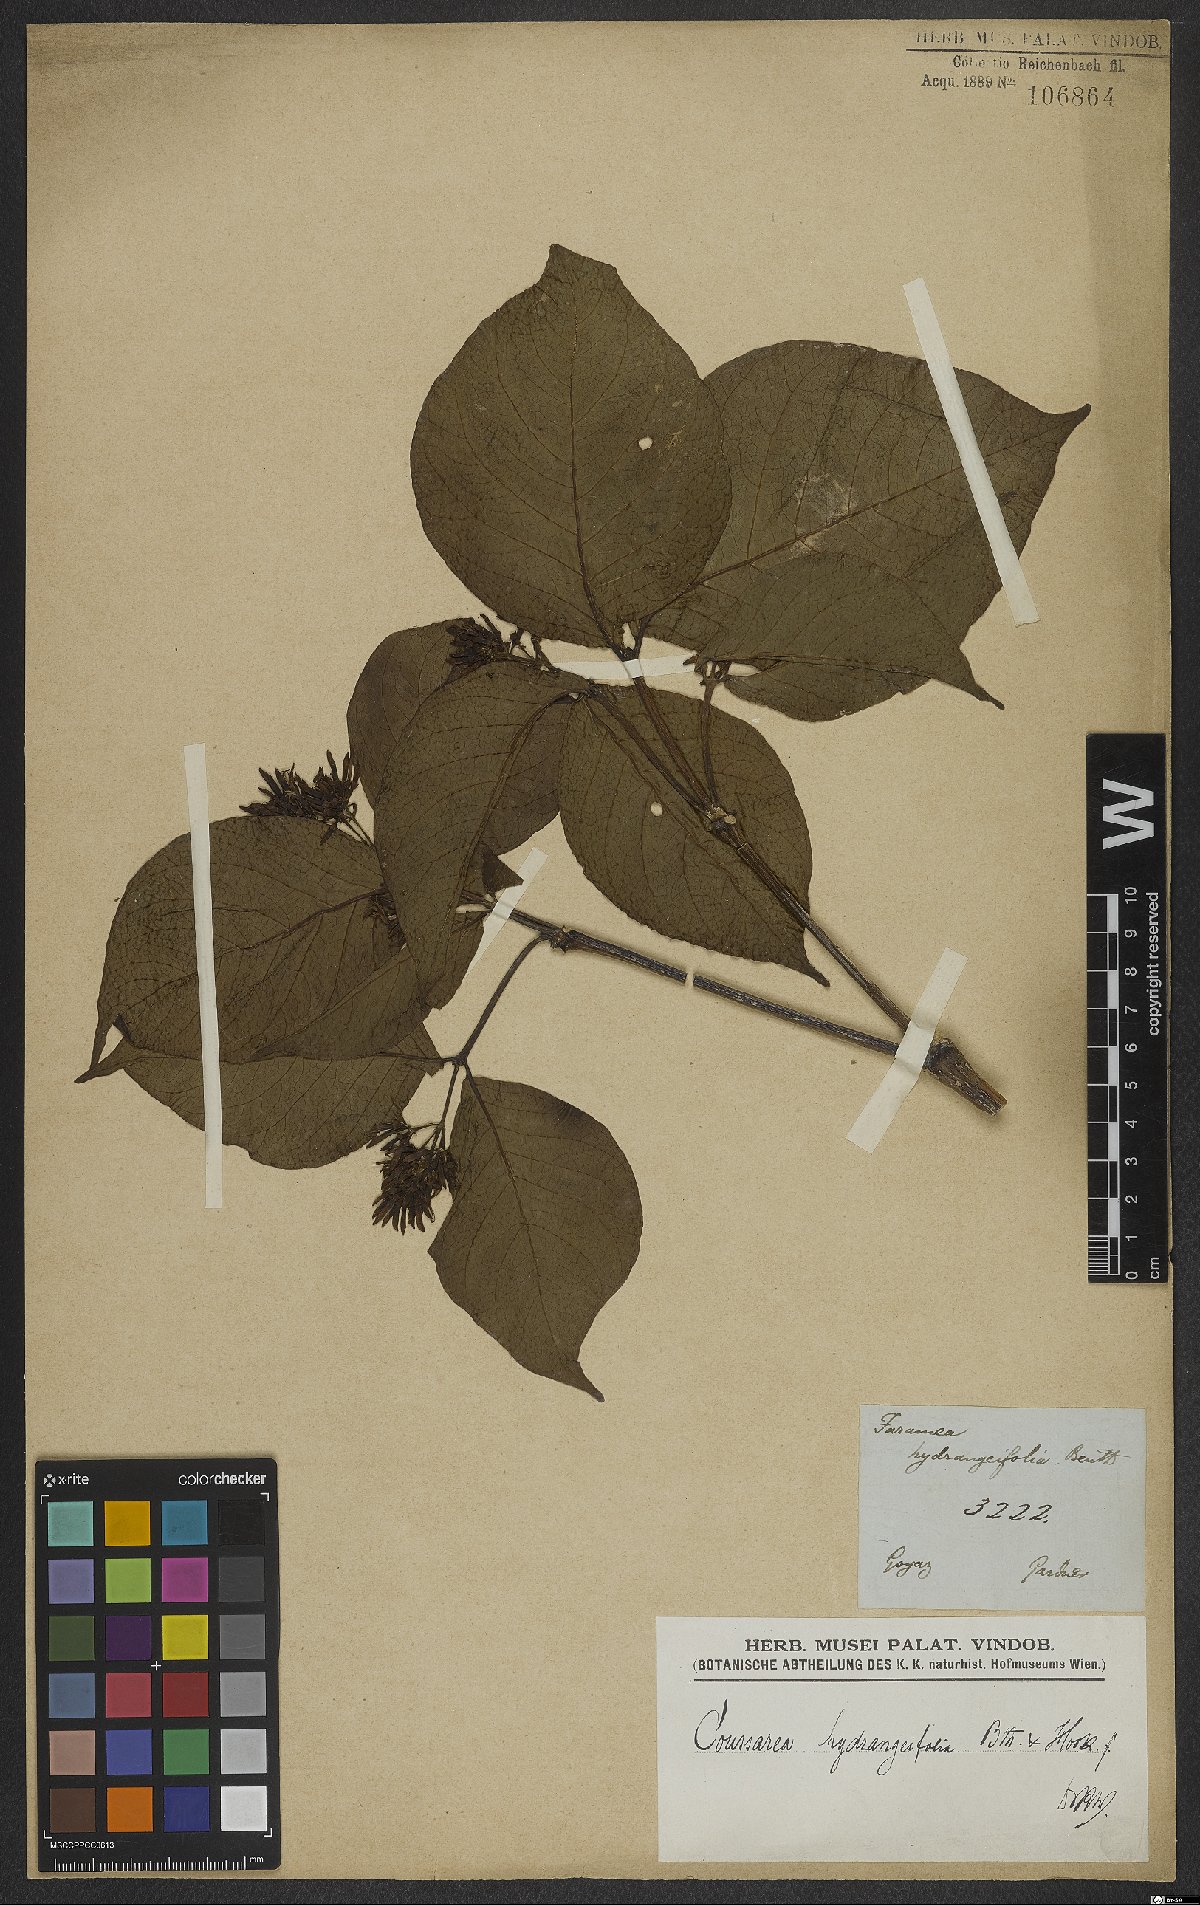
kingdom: Plantae
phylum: Tracheophyta
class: Magnoliopsida
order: Gentianales
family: Rubiaceae
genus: Coussarea
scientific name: Coussarea hydrangeifolia
